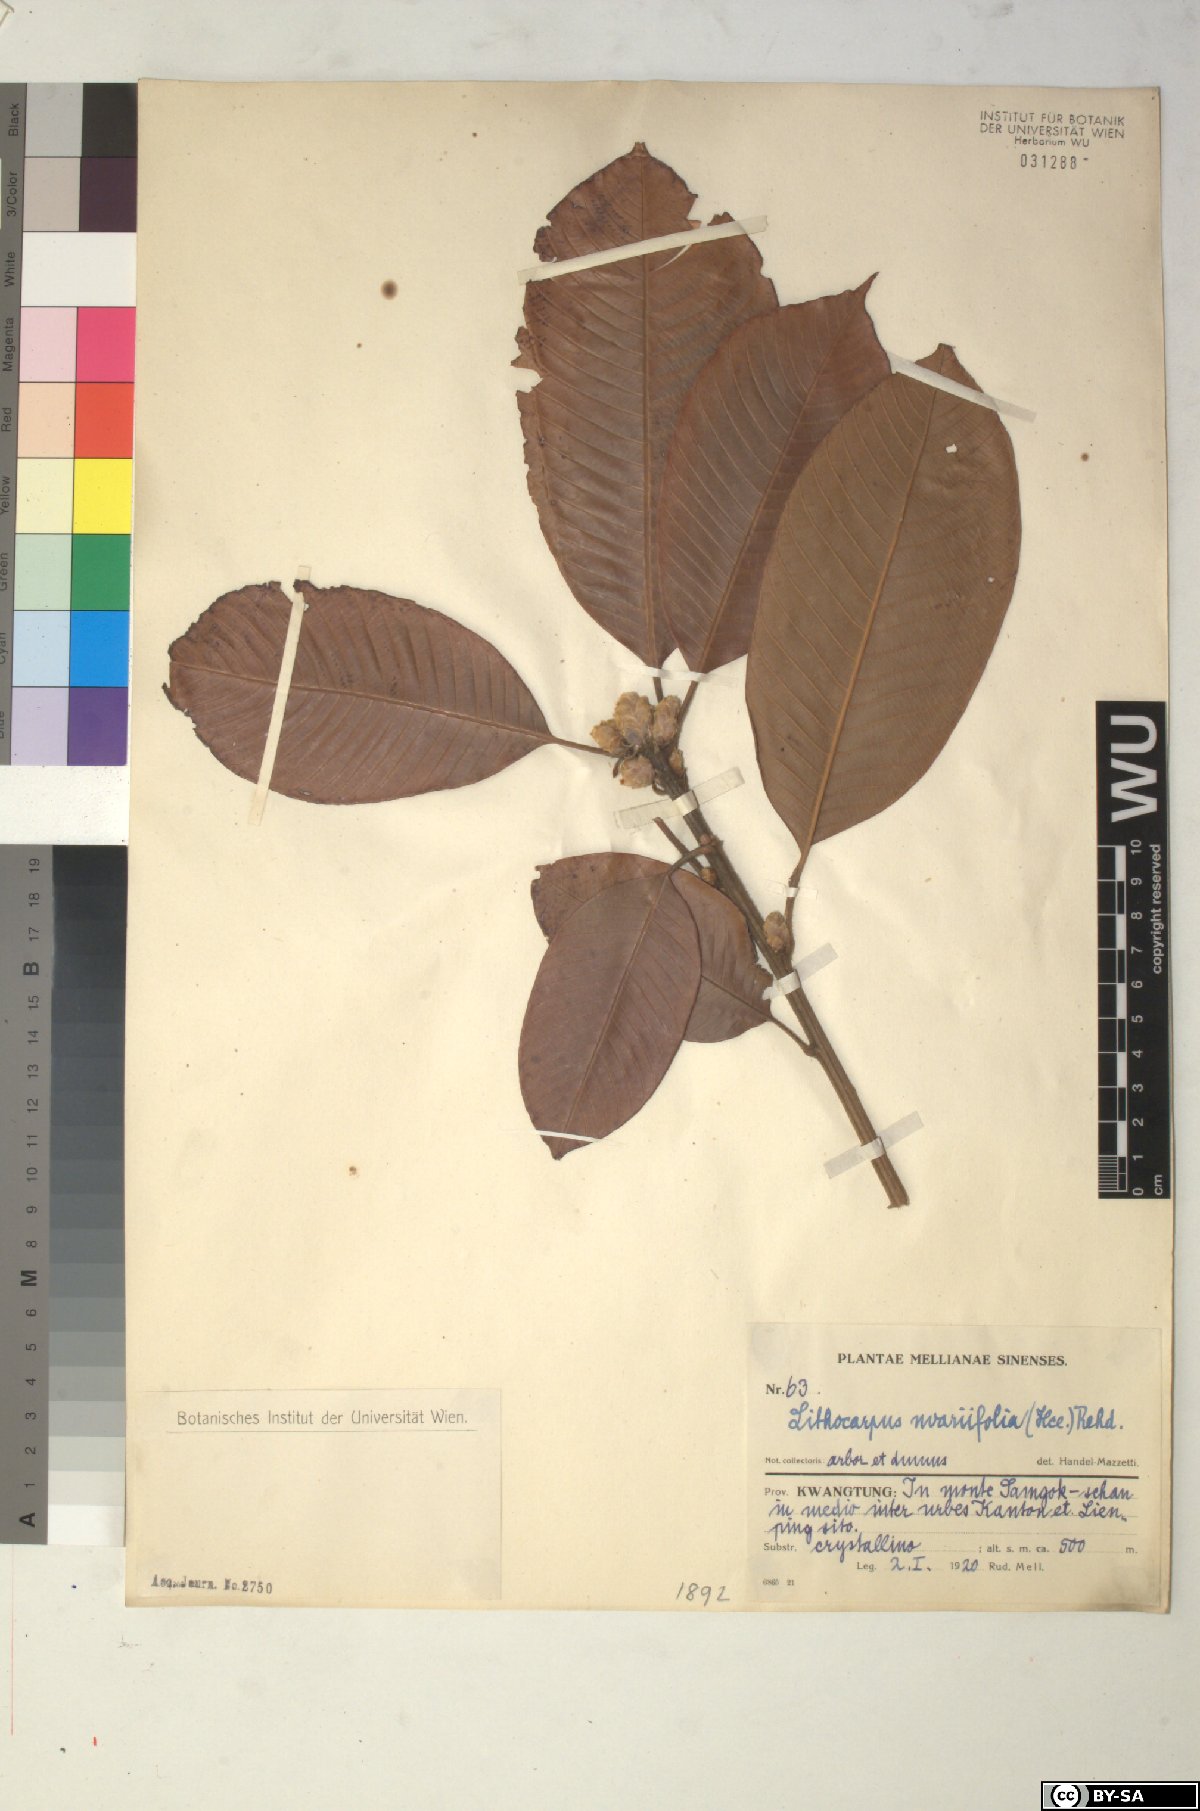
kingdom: Plantae
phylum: Tracheophyta
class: Magnoliopsida
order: Fagales
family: Fagaceae
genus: Lithocarpus
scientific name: Lithocarpus uvariifolius
